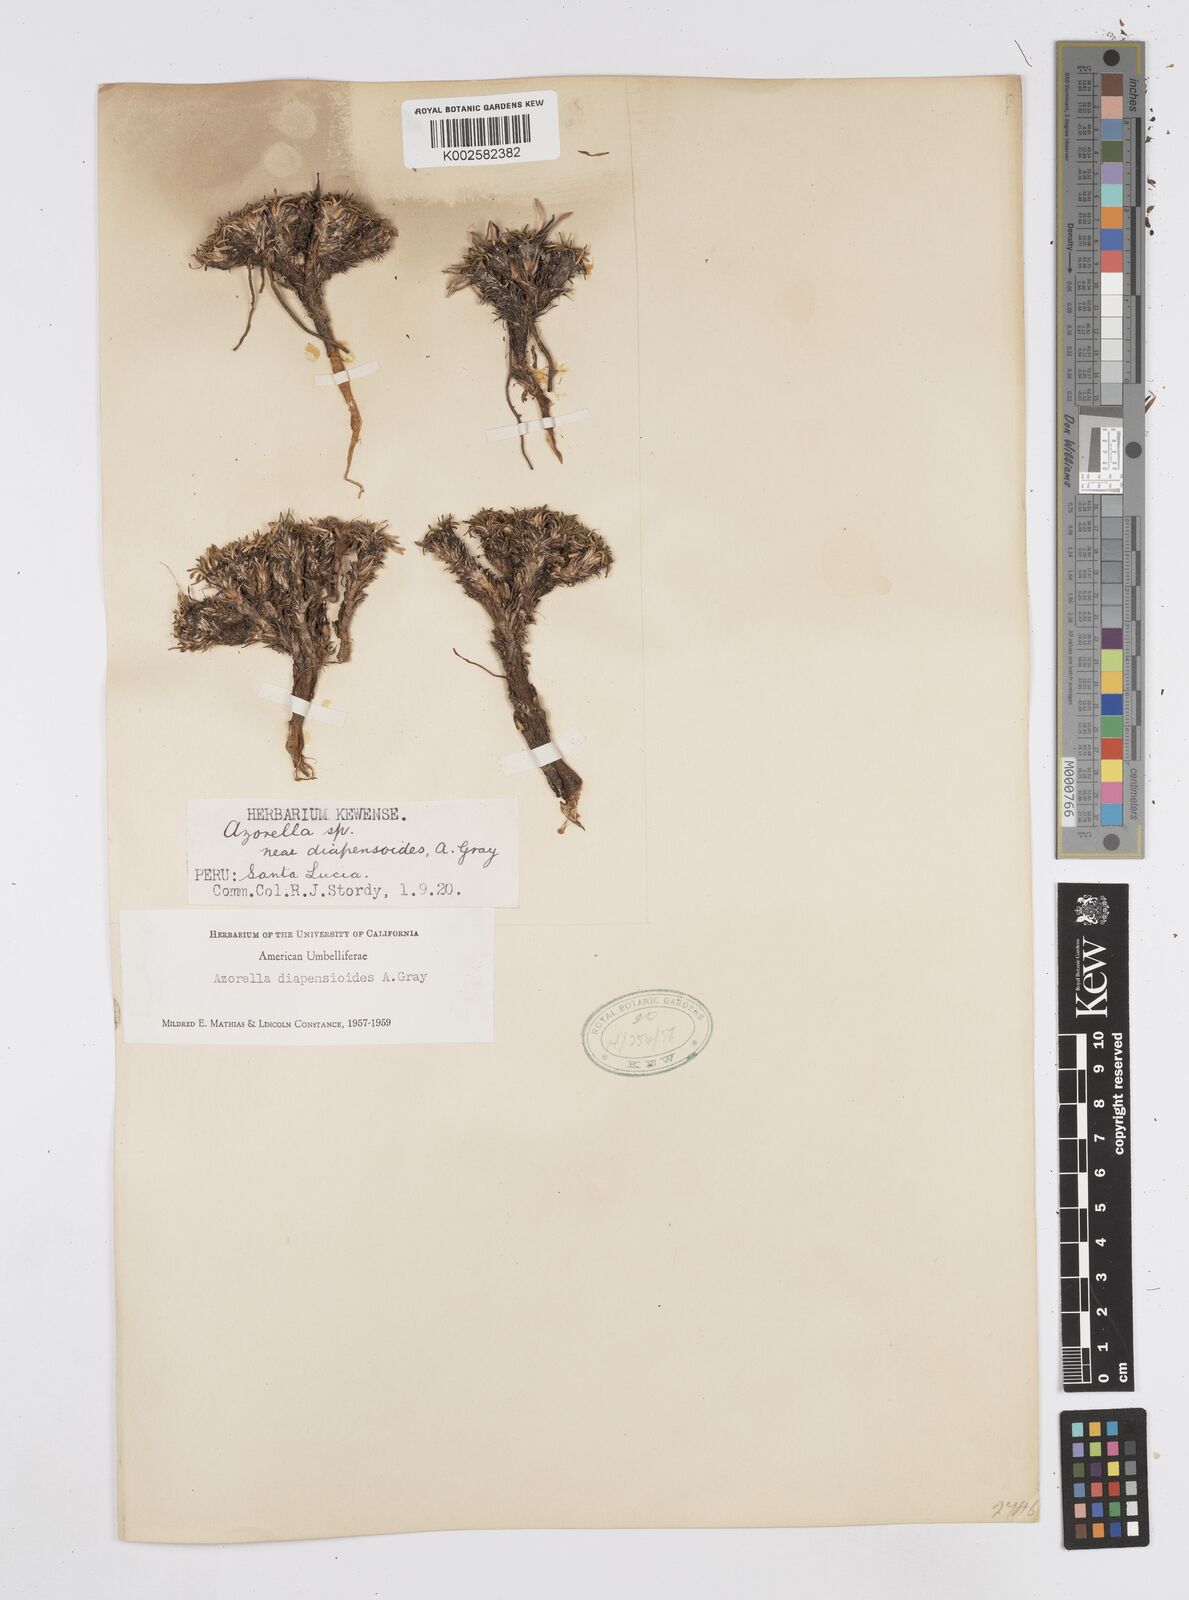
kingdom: Plantae
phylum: Tracheophyta
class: Magnoliopsida
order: Apiales
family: Apiaceae
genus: Azorella
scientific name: Azorella diapensioides
